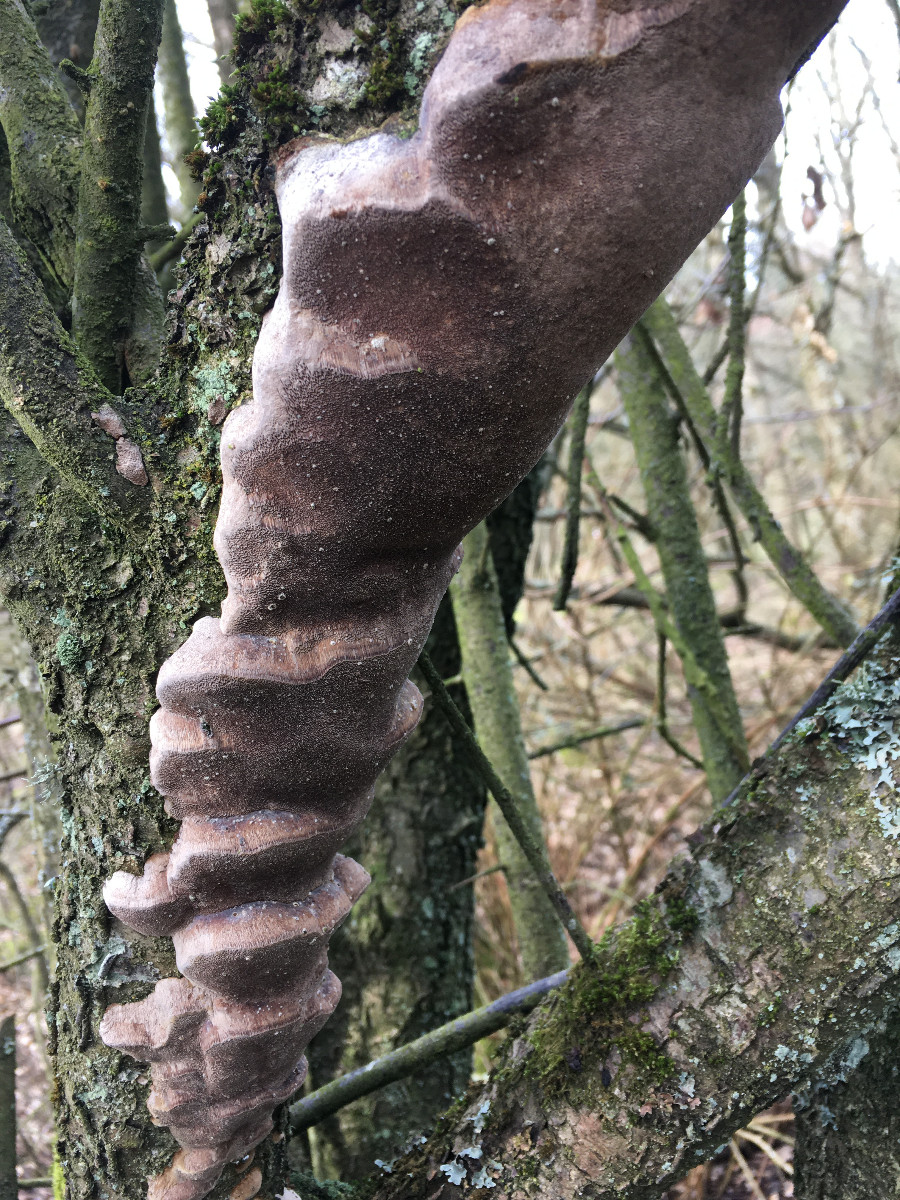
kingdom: Fungi
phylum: Basidiomycota
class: Agaricomycetes
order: Hymenochaetales
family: Hymenochaetaceae
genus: Phellinus
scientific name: Phellinus pomaceus
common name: blomme-ildporesvamp
